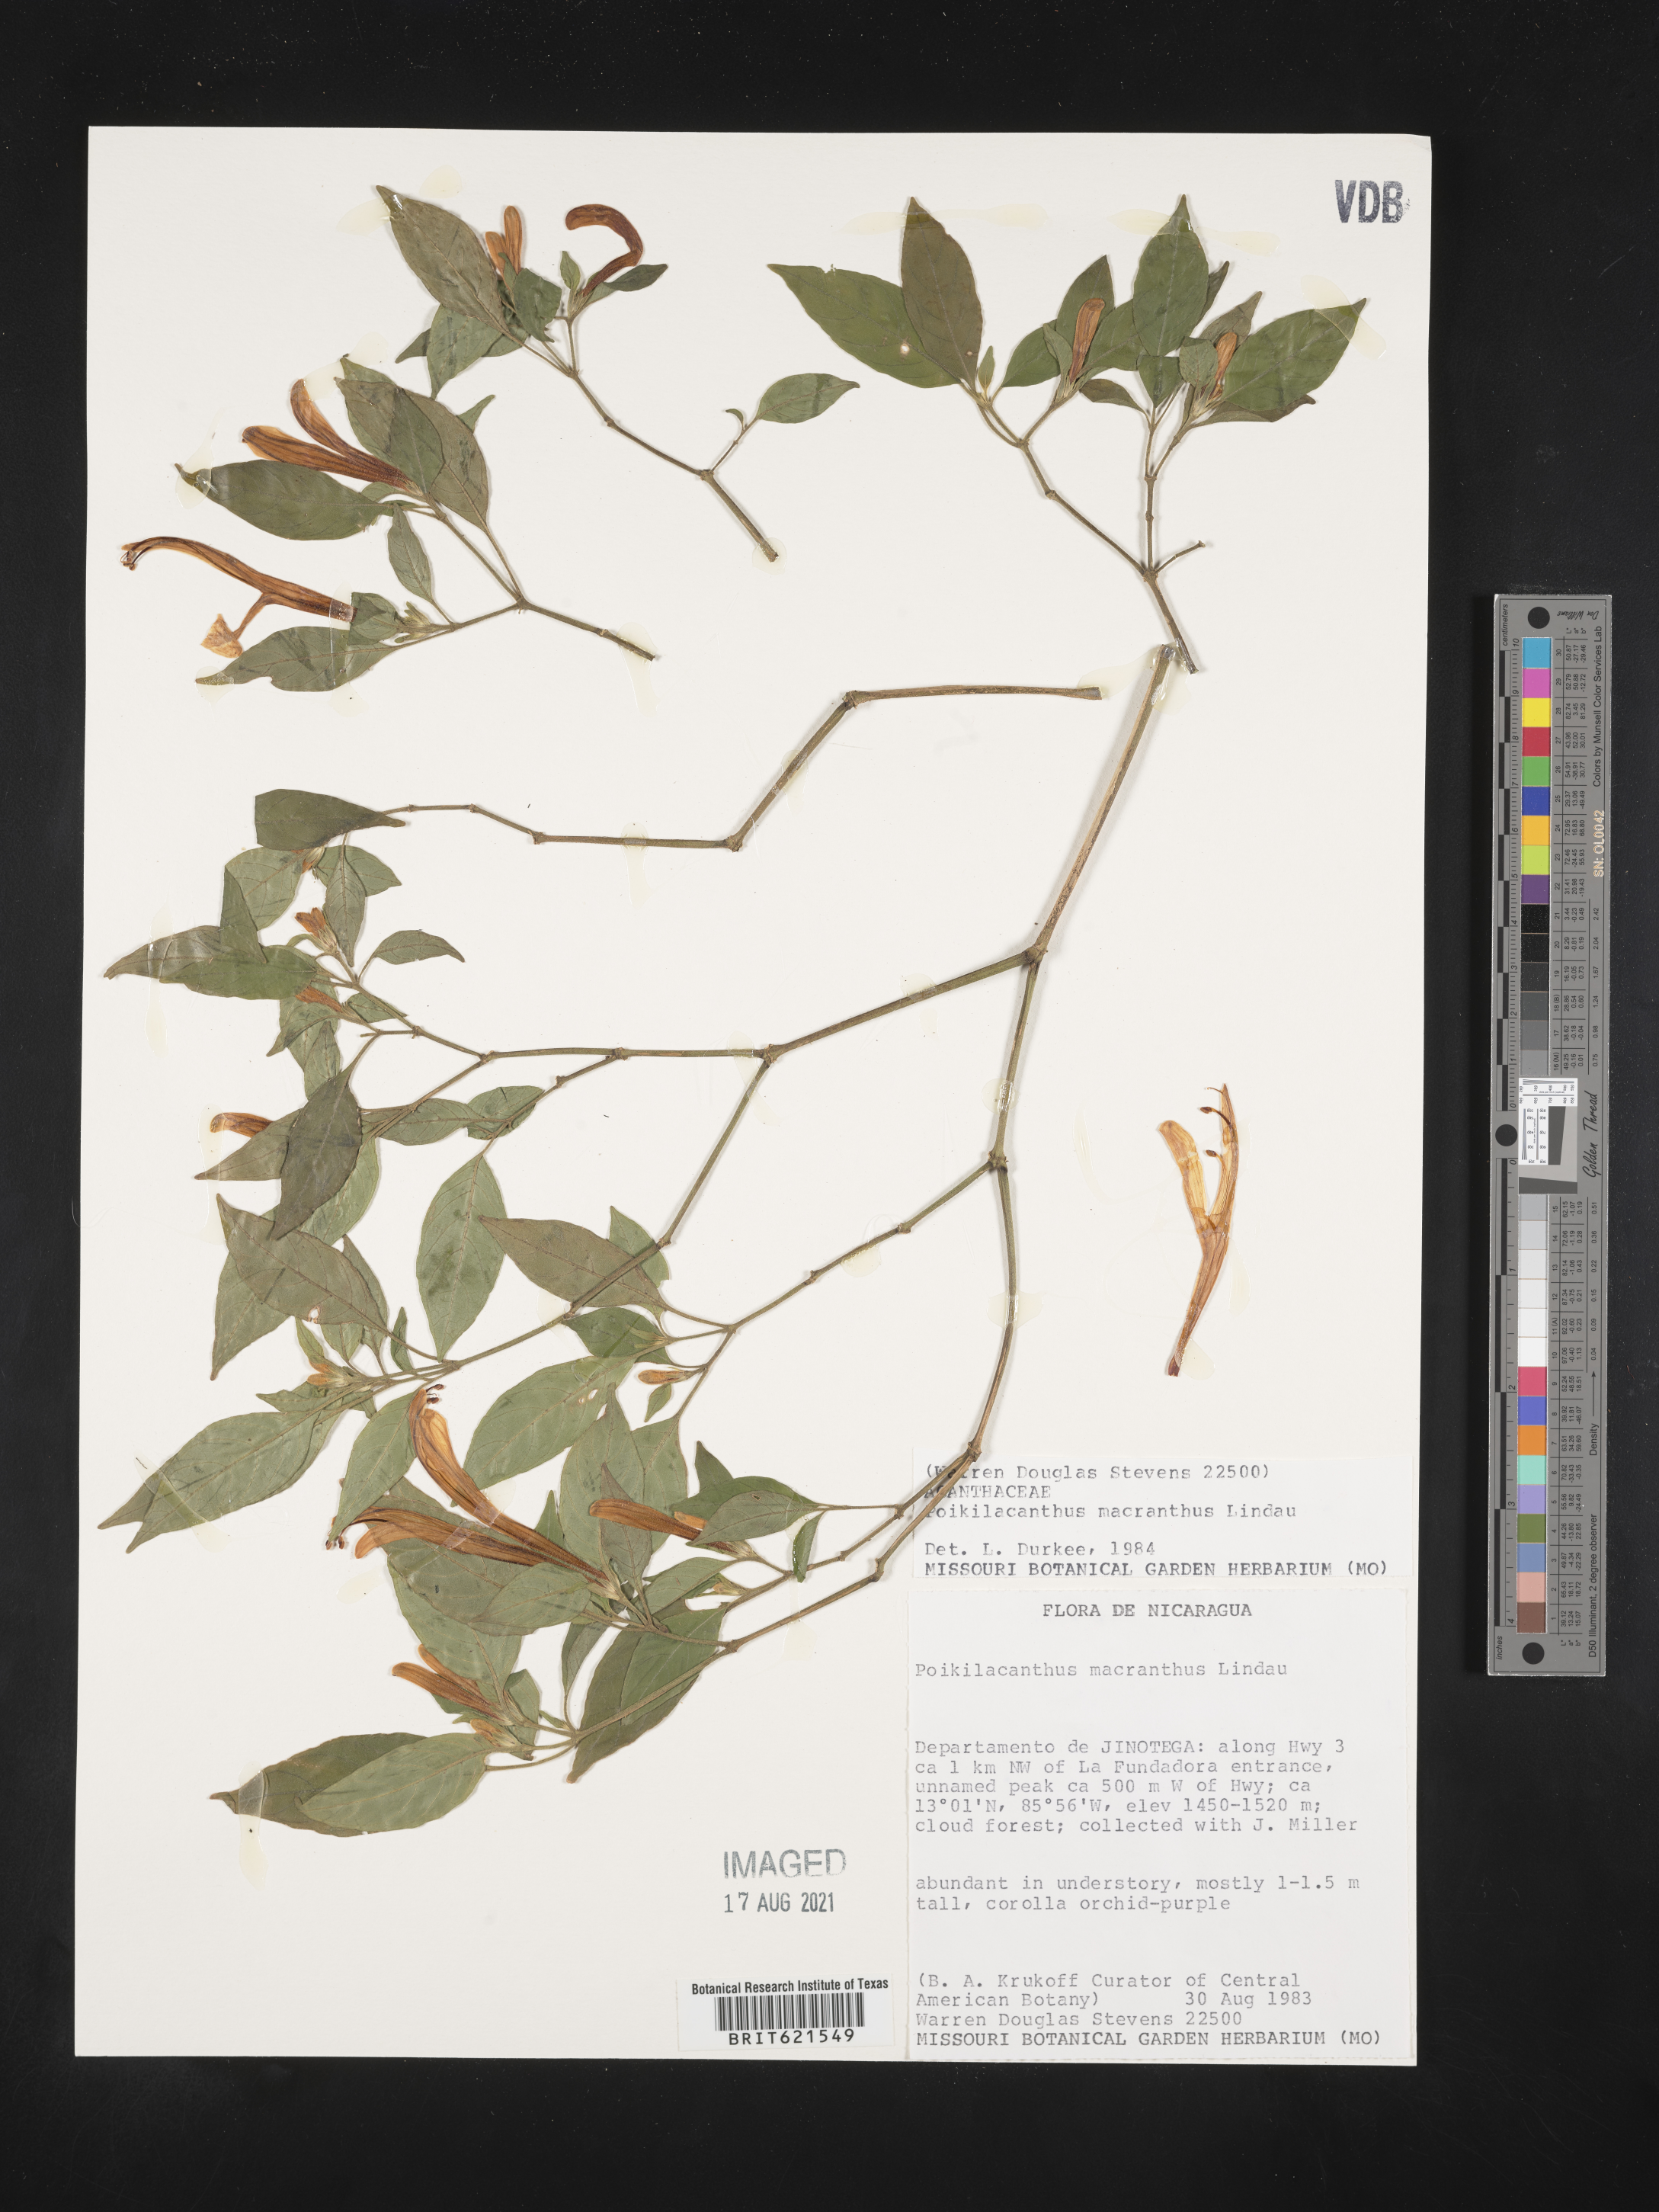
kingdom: Plantae
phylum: Tracheophyta
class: Magnoliopsida
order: Lamiales
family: Acanthaceae
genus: Poikilacanthus
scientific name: Poikilacanthus
